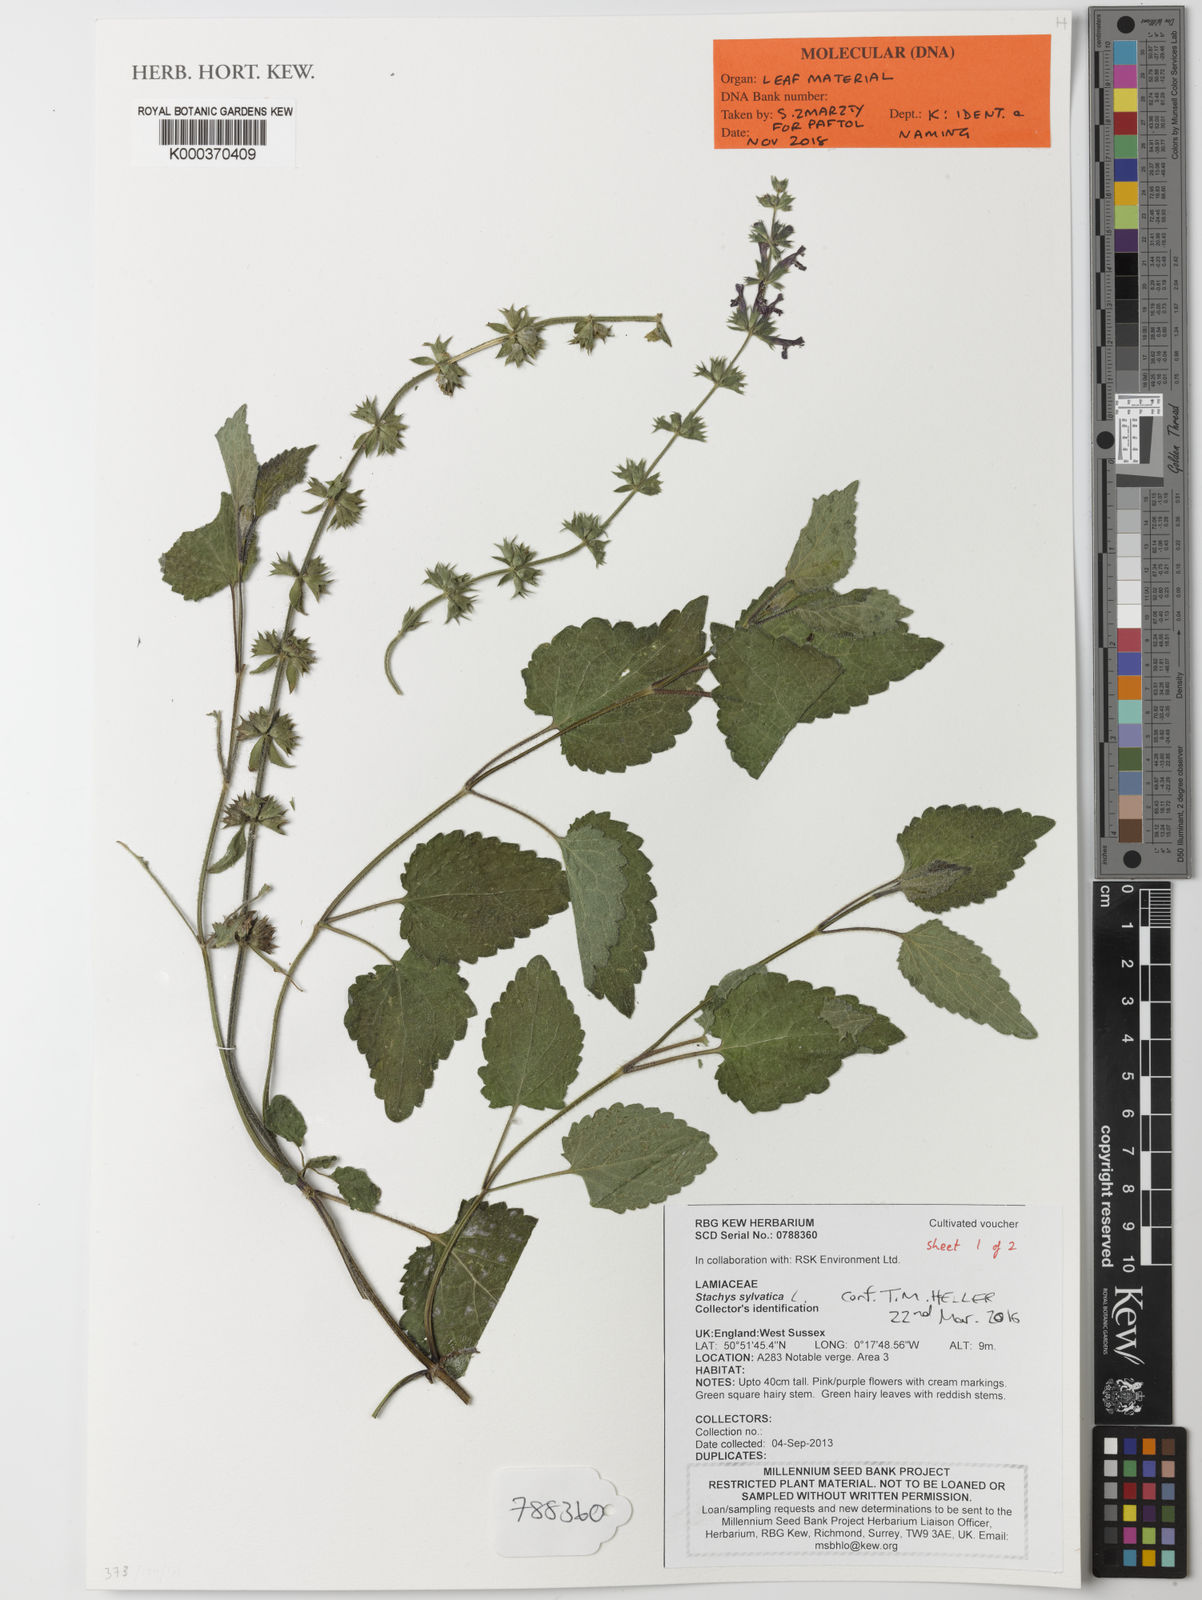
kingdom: Plantae
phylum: Tracheophyta
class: Magnoliopsida
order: Lamiales
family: Lamiaceae
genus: Stachys
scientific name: Stachys sylvatica
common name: Hedge woundwort
